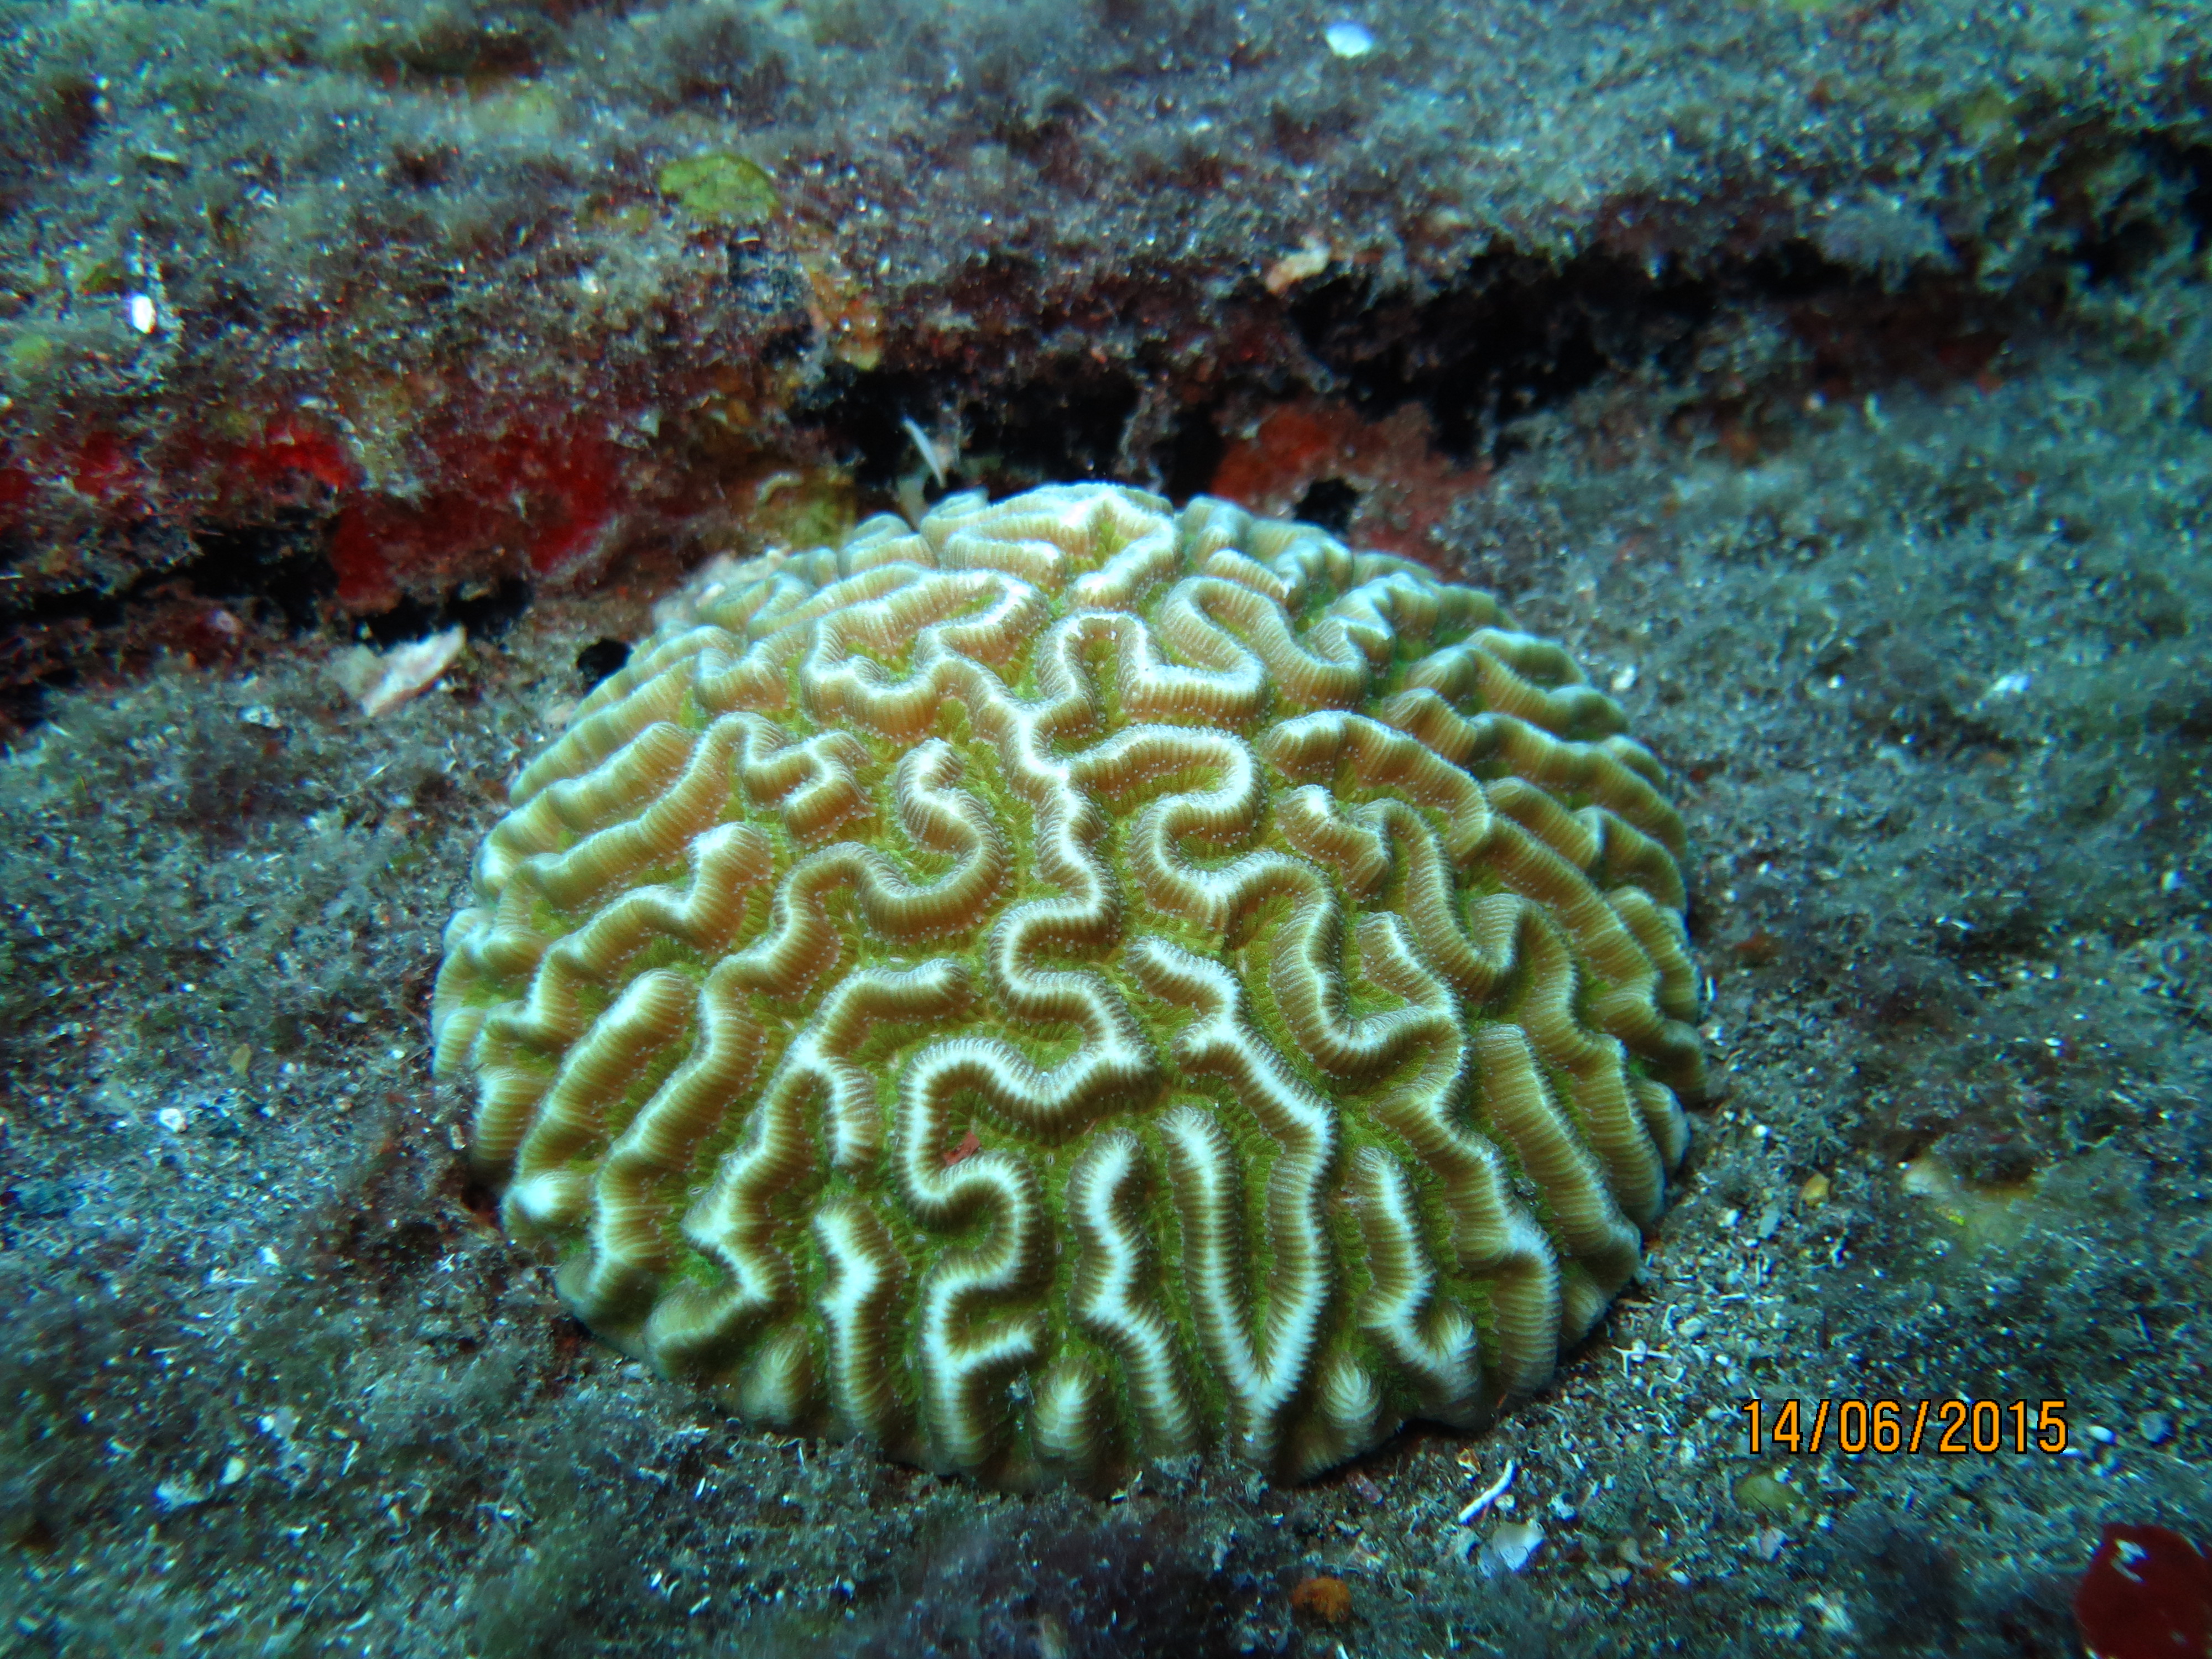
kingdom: Animalia
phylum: Cnidaria
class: Anthozoa
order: Scleractinia
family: Faviidae
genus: Pseudodiploria
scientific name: Pseudodiploria strigosa
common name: Symmetrical brain coral
